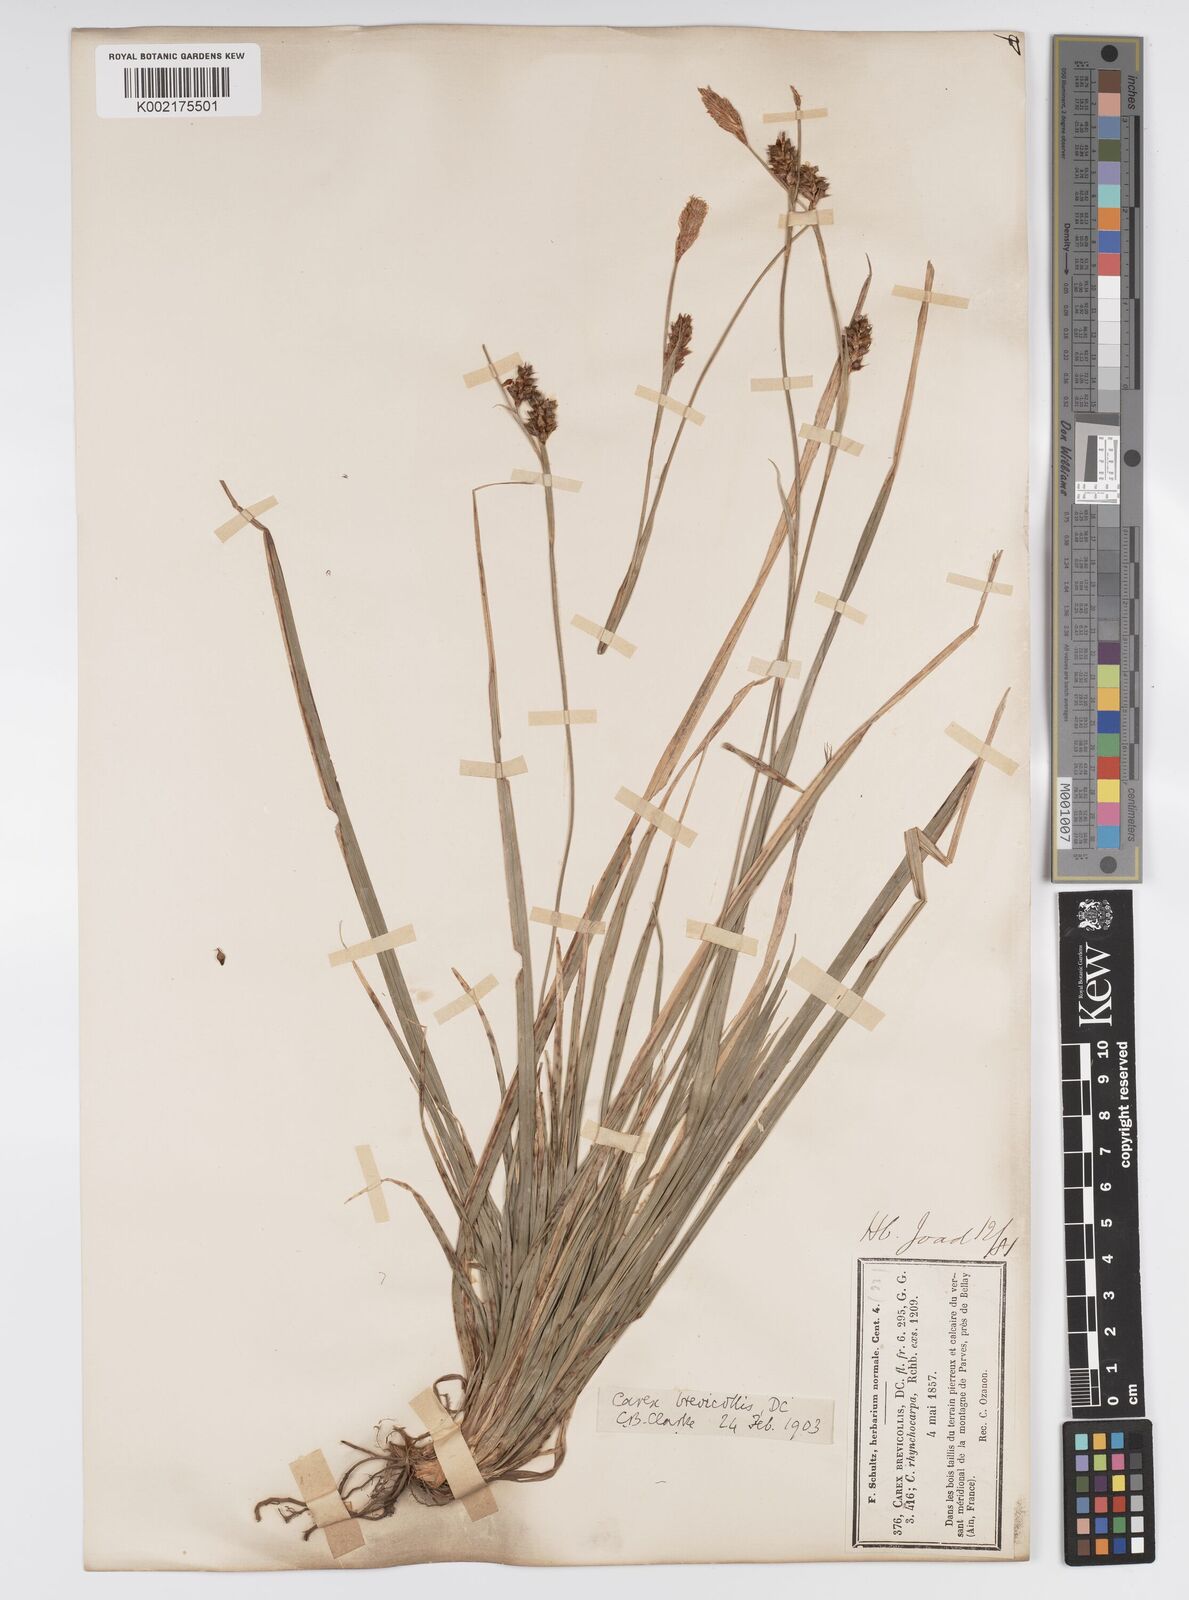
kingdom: Plantae
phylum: Tracheophyta
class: Liliopsida
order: Poales
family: Cyperaceae
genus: Carex
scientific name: Carex brevicollis
